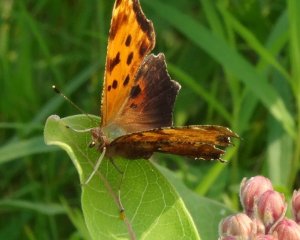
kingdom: Animalia
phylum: Arthropoda
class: Insecta
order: Lepidoptera
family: Nymphalidae
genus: Polygonia
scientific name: Polygonia comma
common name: Eastern Comma
